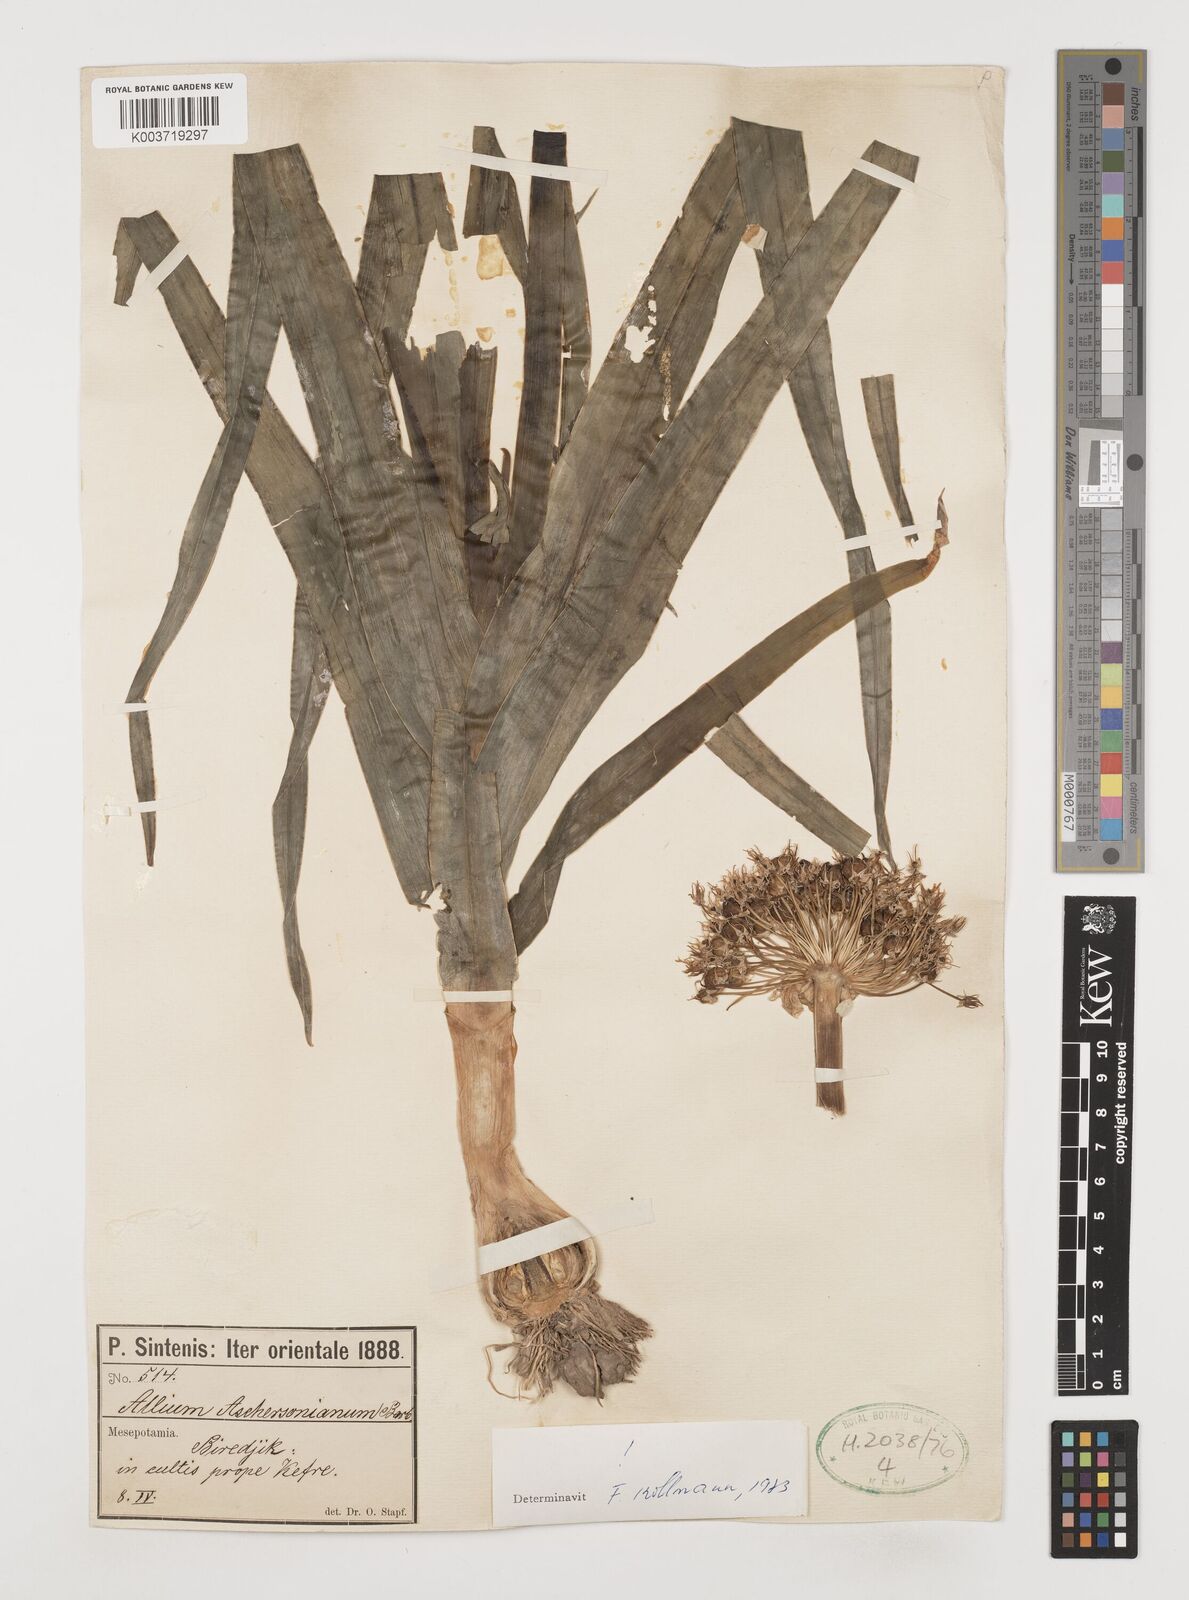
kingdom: Plantae
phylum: Tracheophyta
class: Liliopsida
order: Asparagales
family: Amaryllidaceae
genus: Allium
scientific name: Allium aschersonianum
